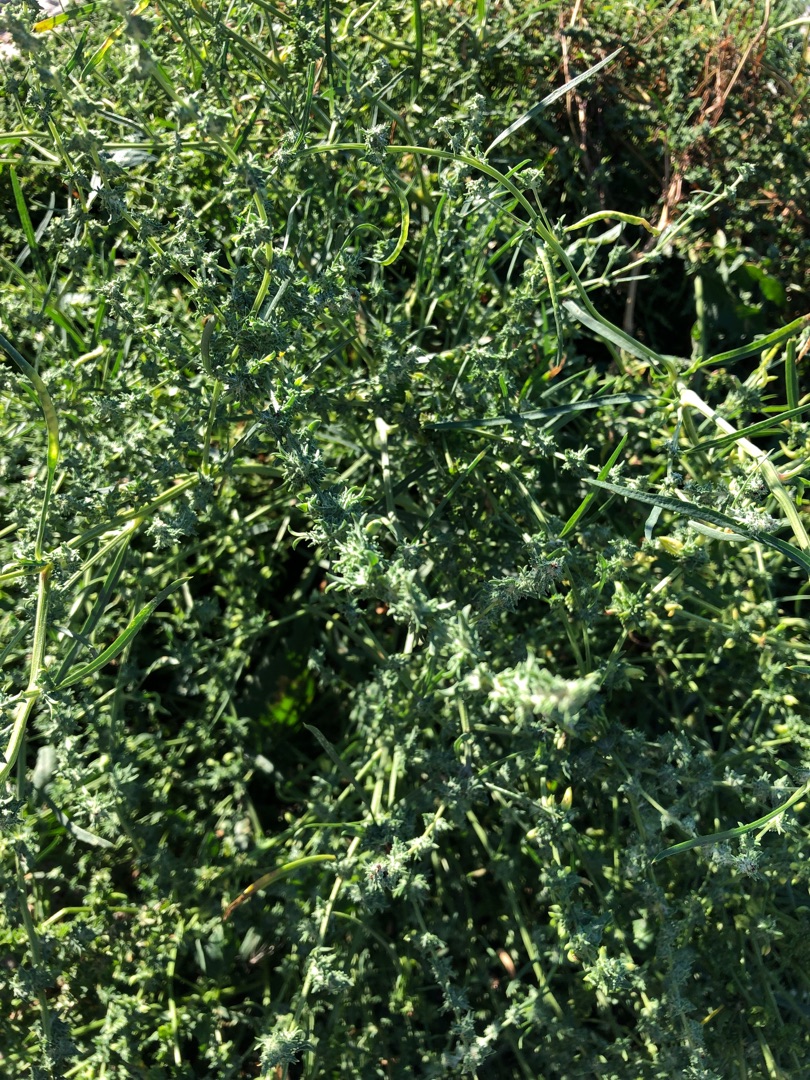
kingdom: Plantae
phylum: Tracheophyta
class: Magnoliopsida
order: Caryophyllales
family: Amaranthaceae
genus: Atriplex
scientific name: Atriplex littoralis
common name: Strand-mælde
